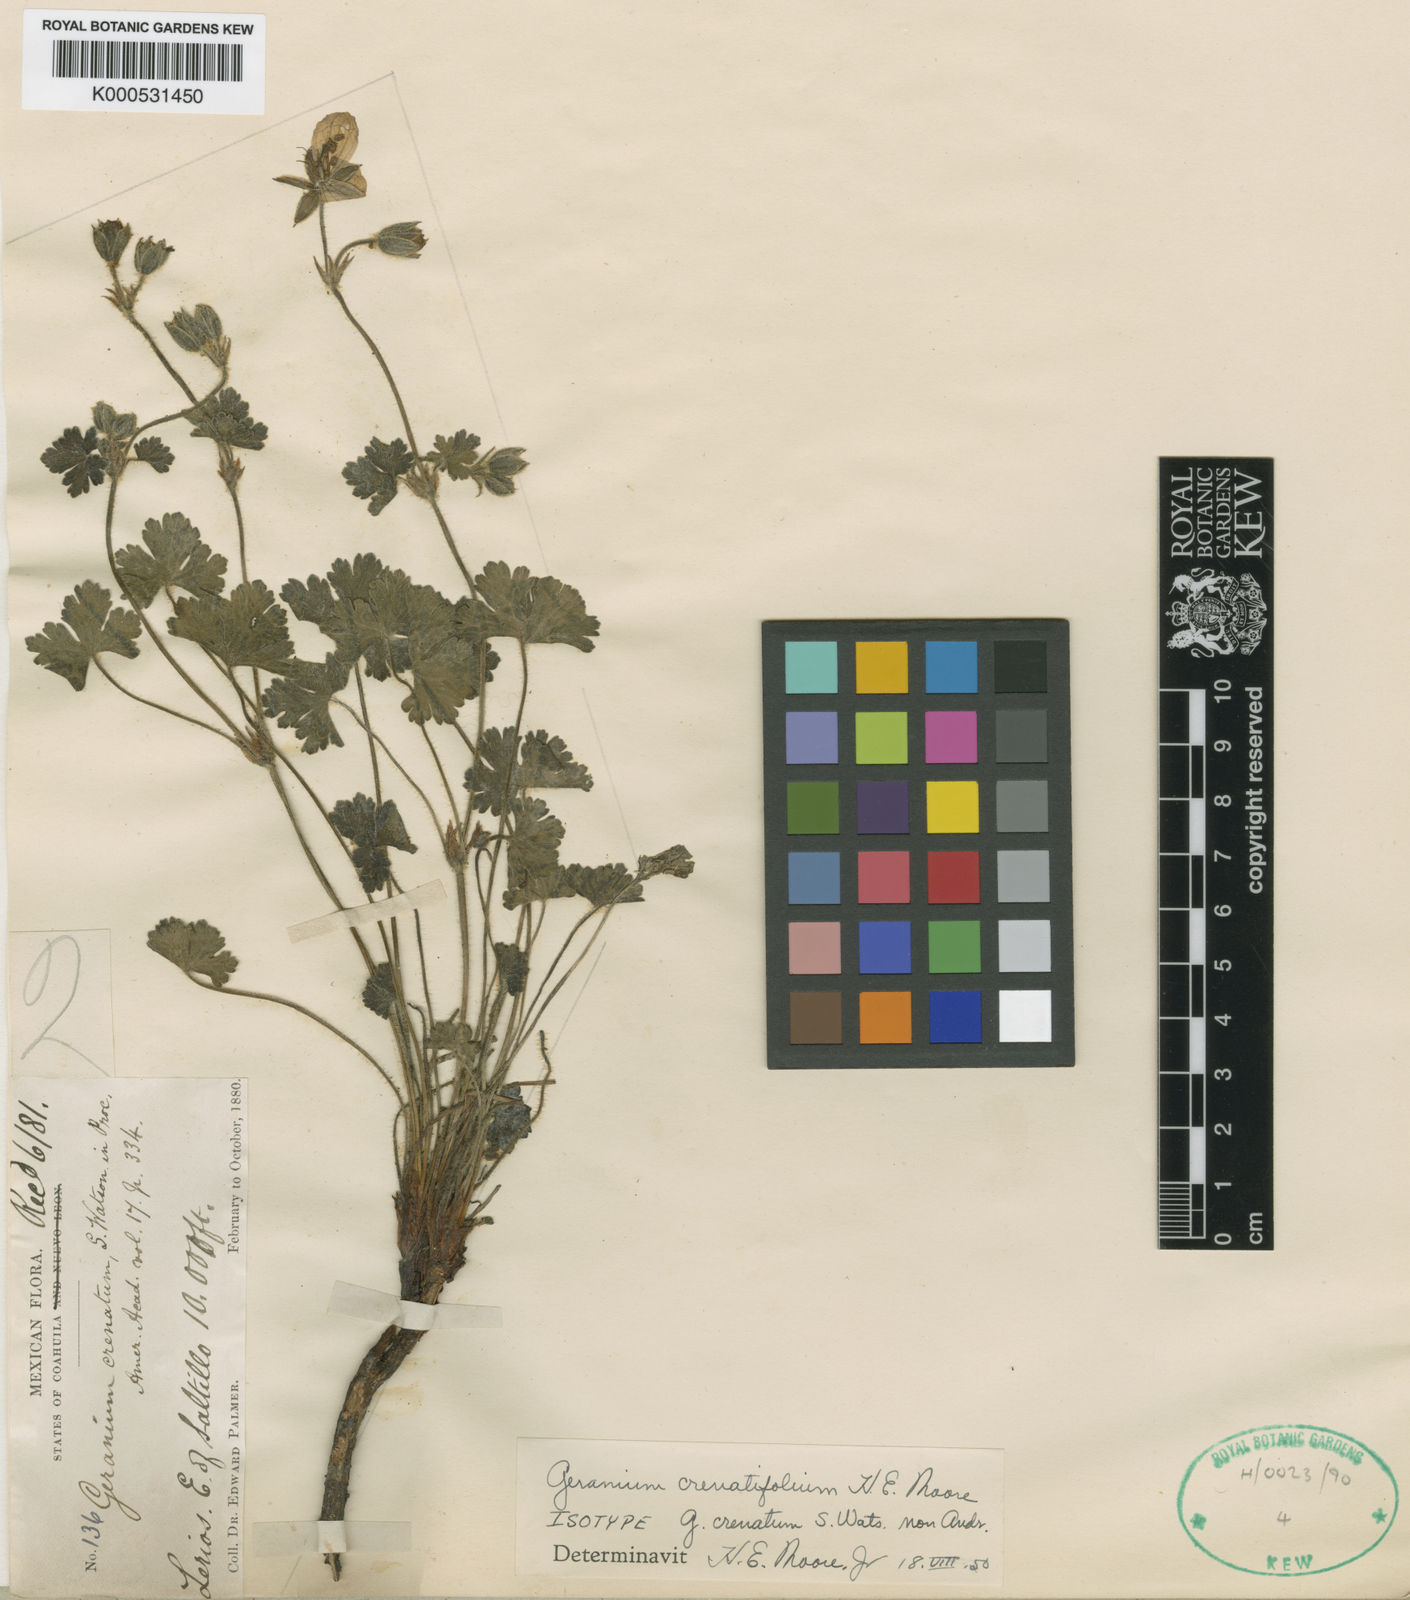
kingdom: Plantae
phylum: Tracheophyta
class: Magnoliopsida
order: Geraniales
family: Geraniaceae
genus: Geranium
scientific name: Geranium crenatifolium
